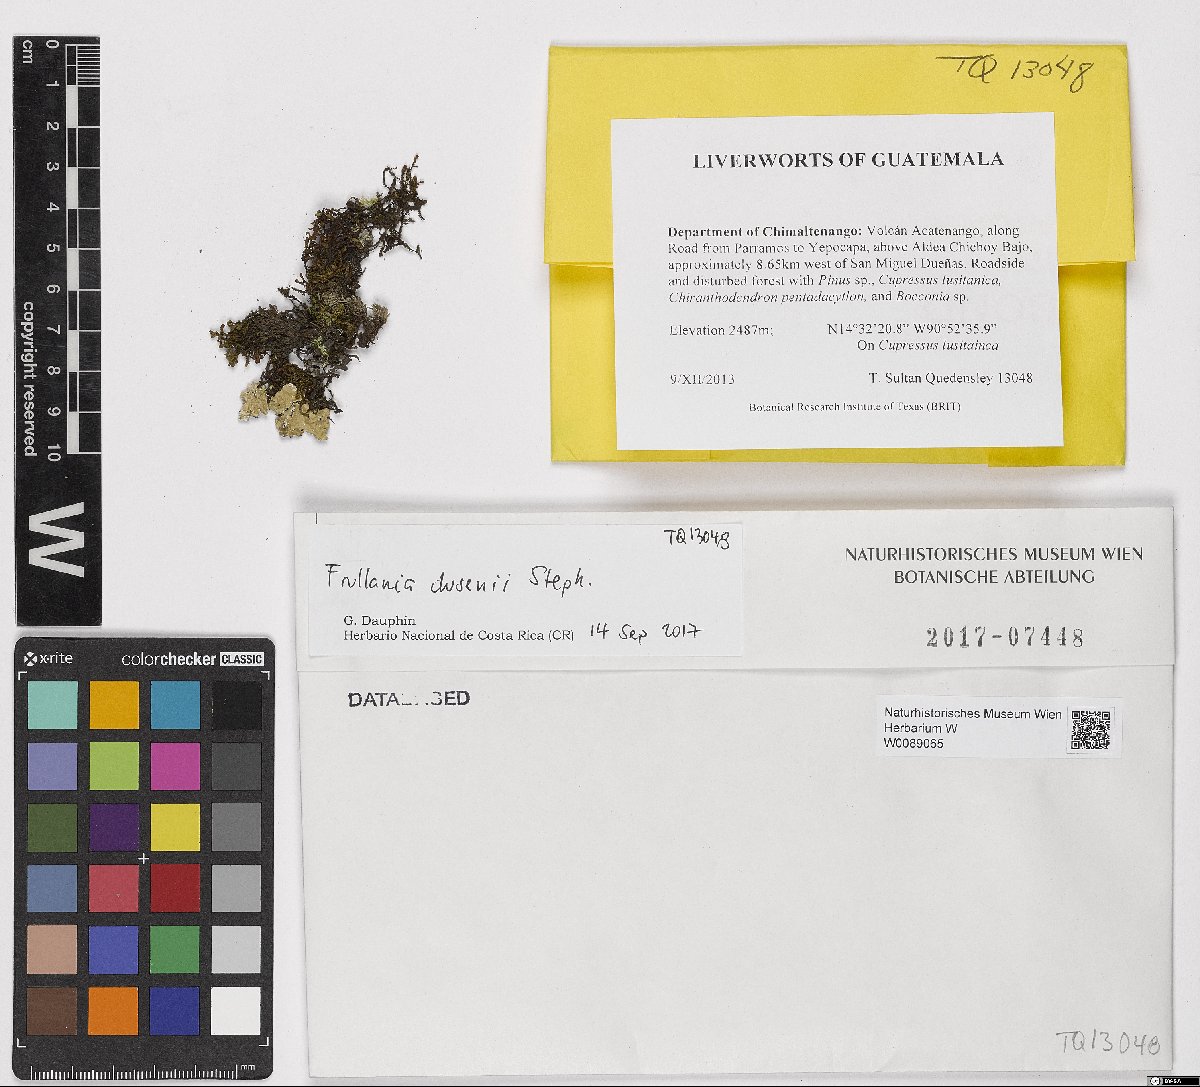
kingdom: Plantae
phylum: Marchantiophyta
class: Jungermanniopsida
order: Porellales
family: Frullaniaceae
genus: Frullania
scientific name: Frullania
